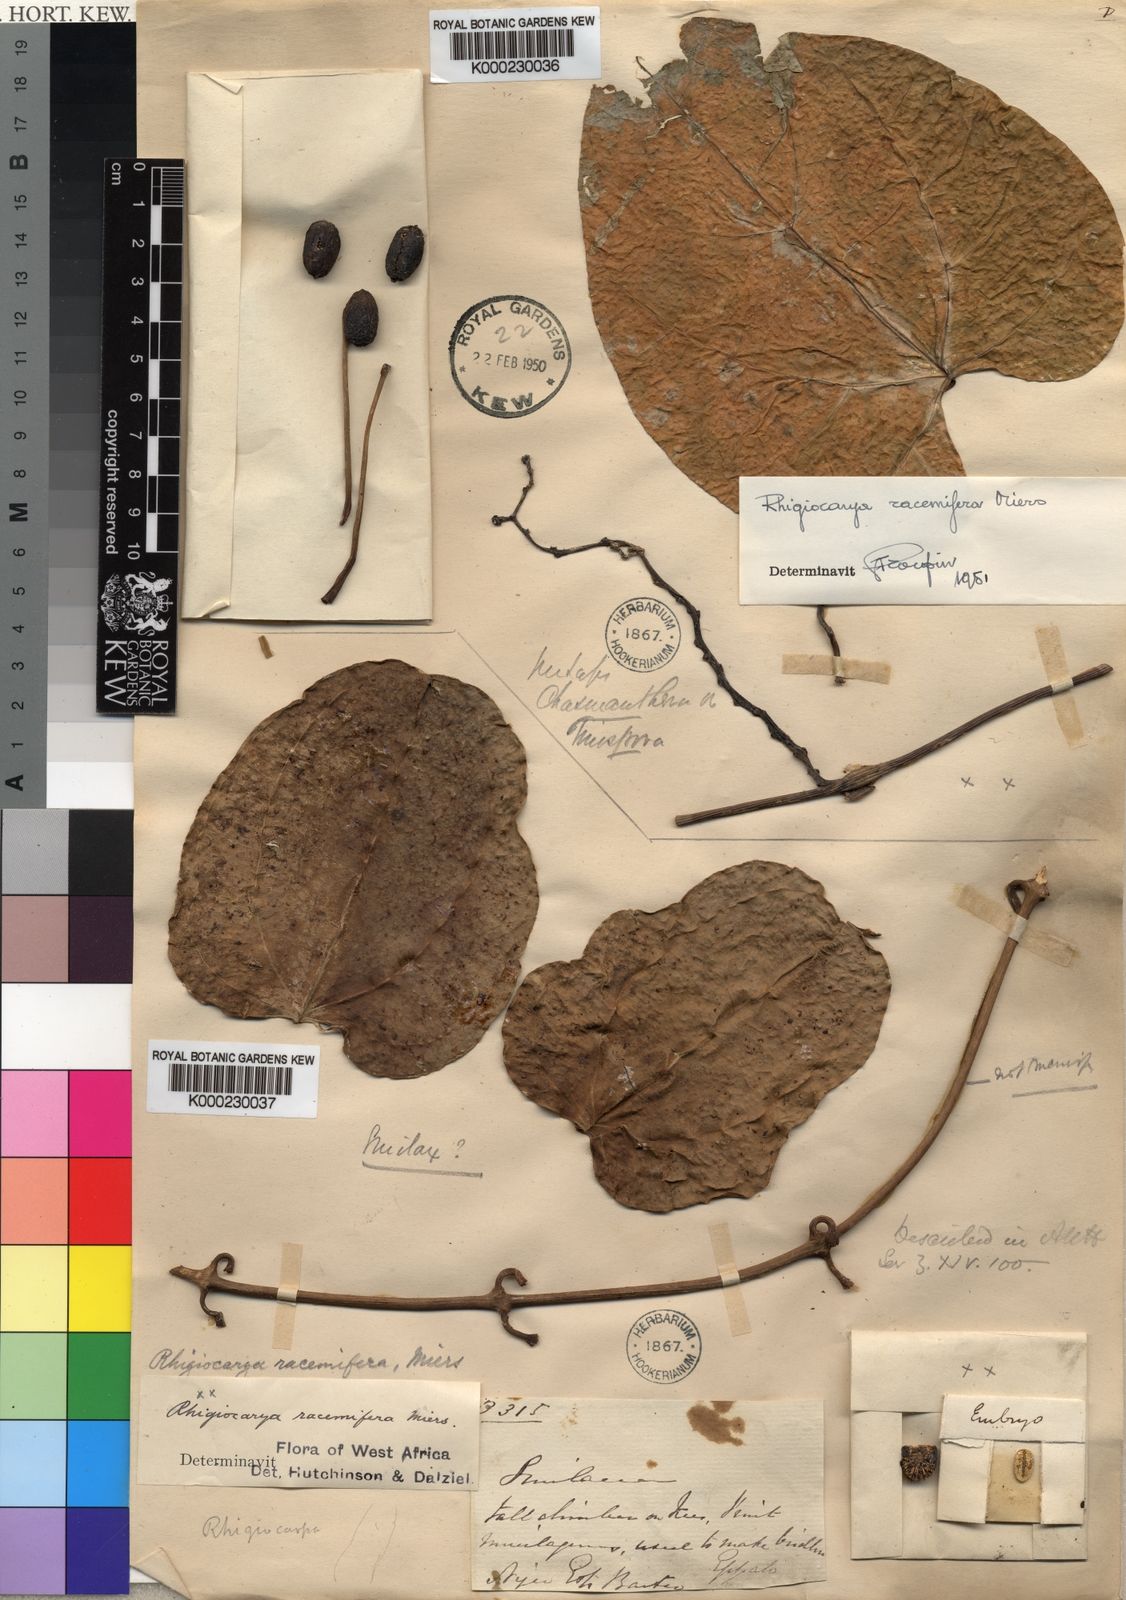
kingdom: Plantae
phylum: Tracheophyta
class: Magnoliopsida
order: Ranunculales
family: Menispermaceae
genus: Rhigiocarya
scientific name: Rhigiocarya racemifera
